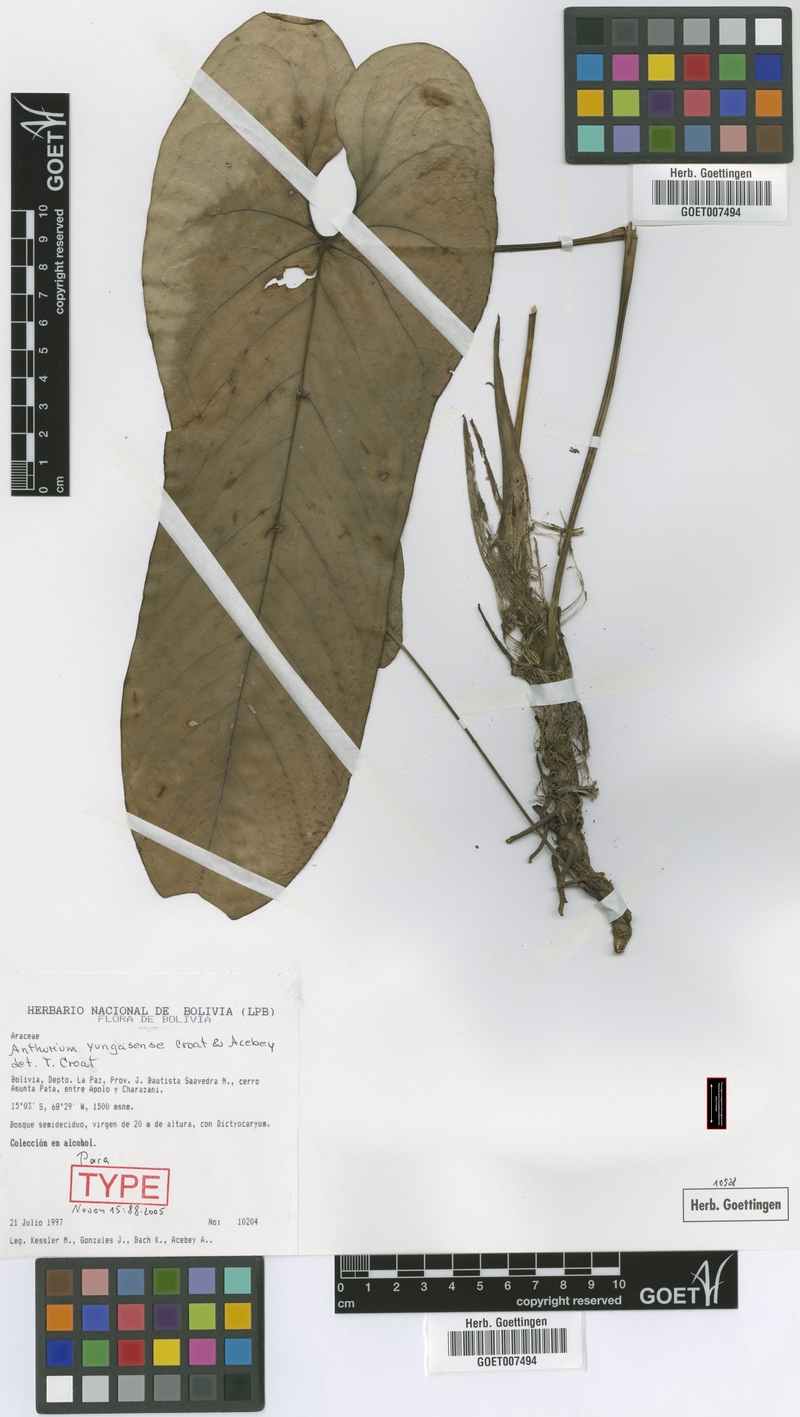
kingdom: Plantae
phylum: Tracheophyta
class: Liliopsida
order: Alismatales
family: Araceae
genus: Anthurium
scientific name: Anthurium yungasense
